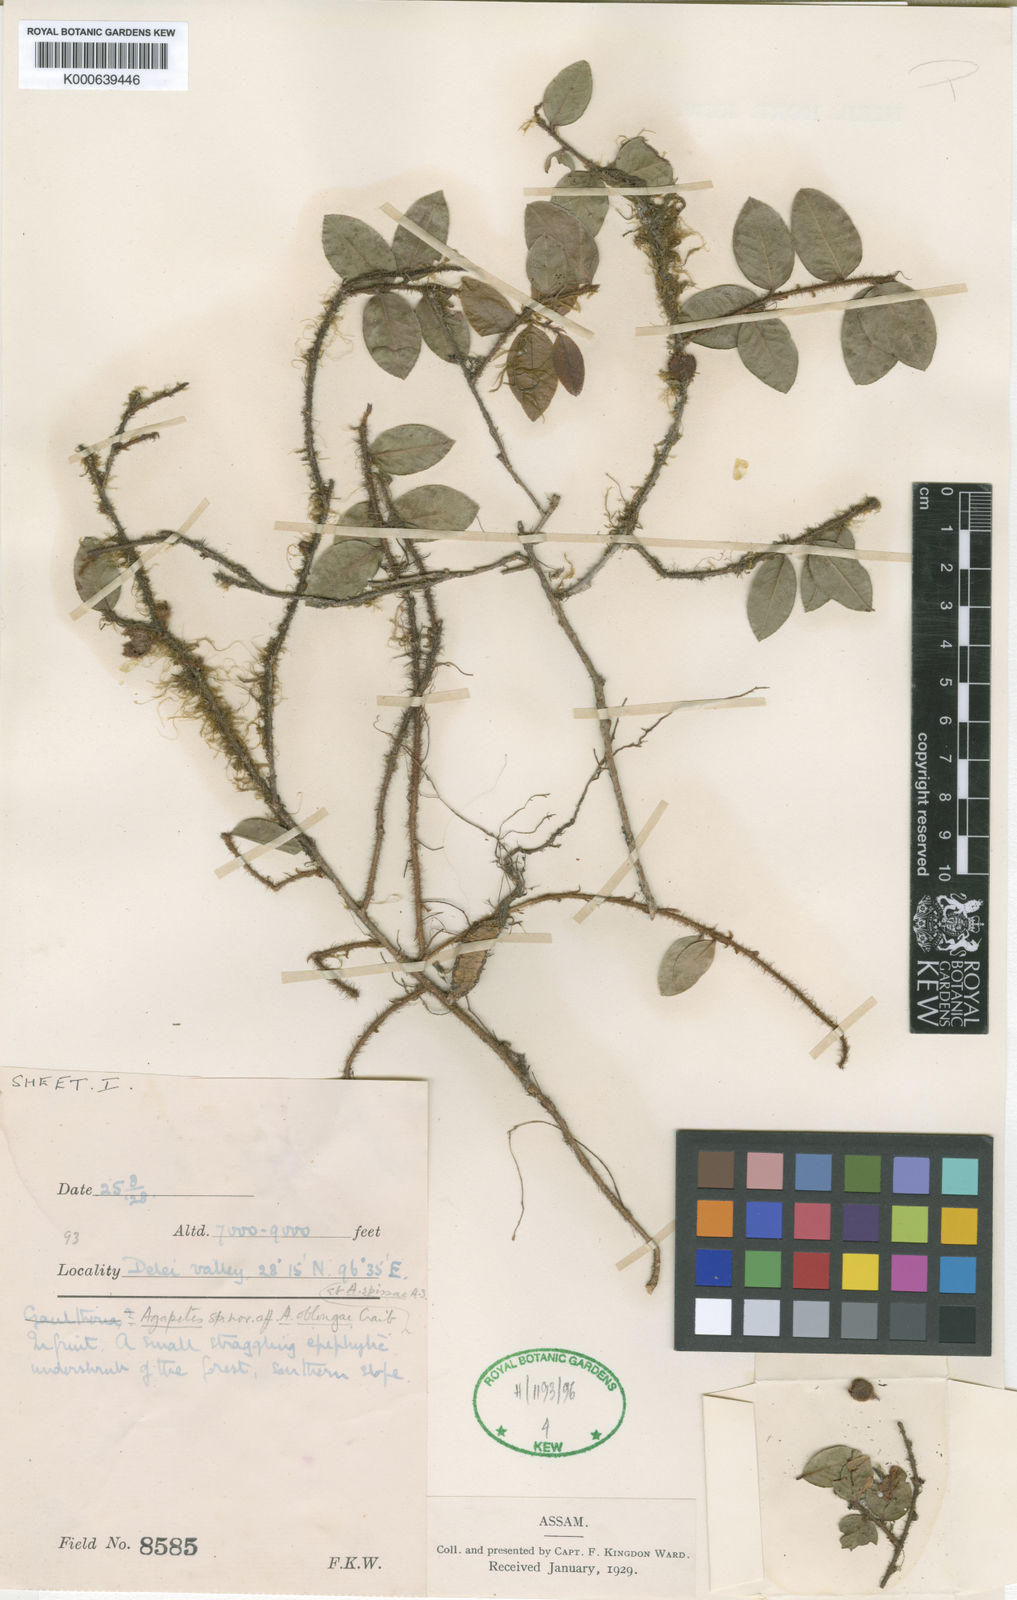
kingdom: Plantae
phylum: Tracheophyta
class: Magnoliopsida
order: Ericales
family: Ericaceae
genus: Agapetes
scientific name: Agapetes anonyma
